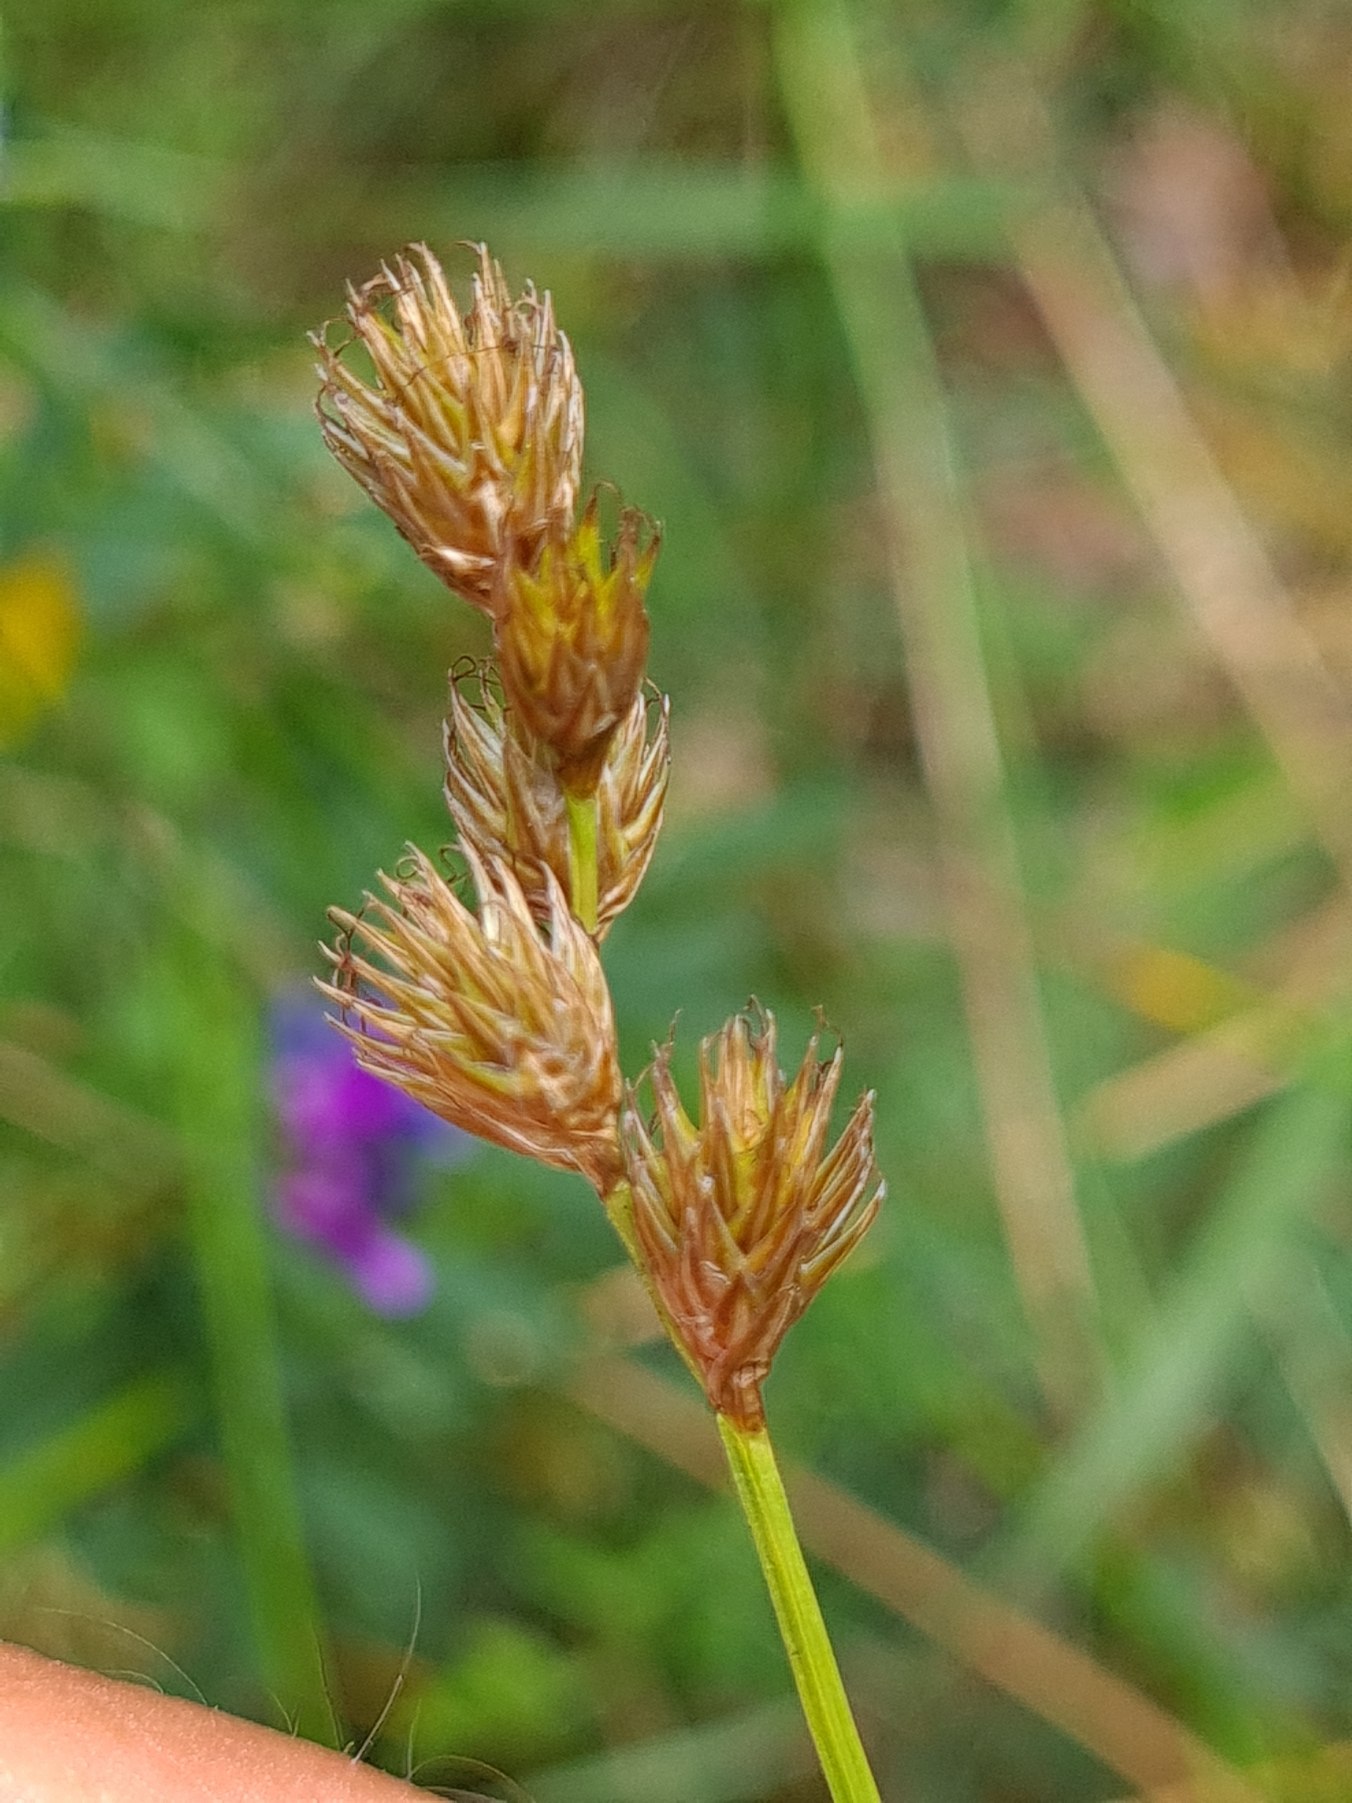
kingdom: Plantae
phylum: Tracheophyta
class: Liliopsida
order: Poales
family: Cyperaceae
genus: Carex
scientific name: Carex leporina
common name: Hare-star
